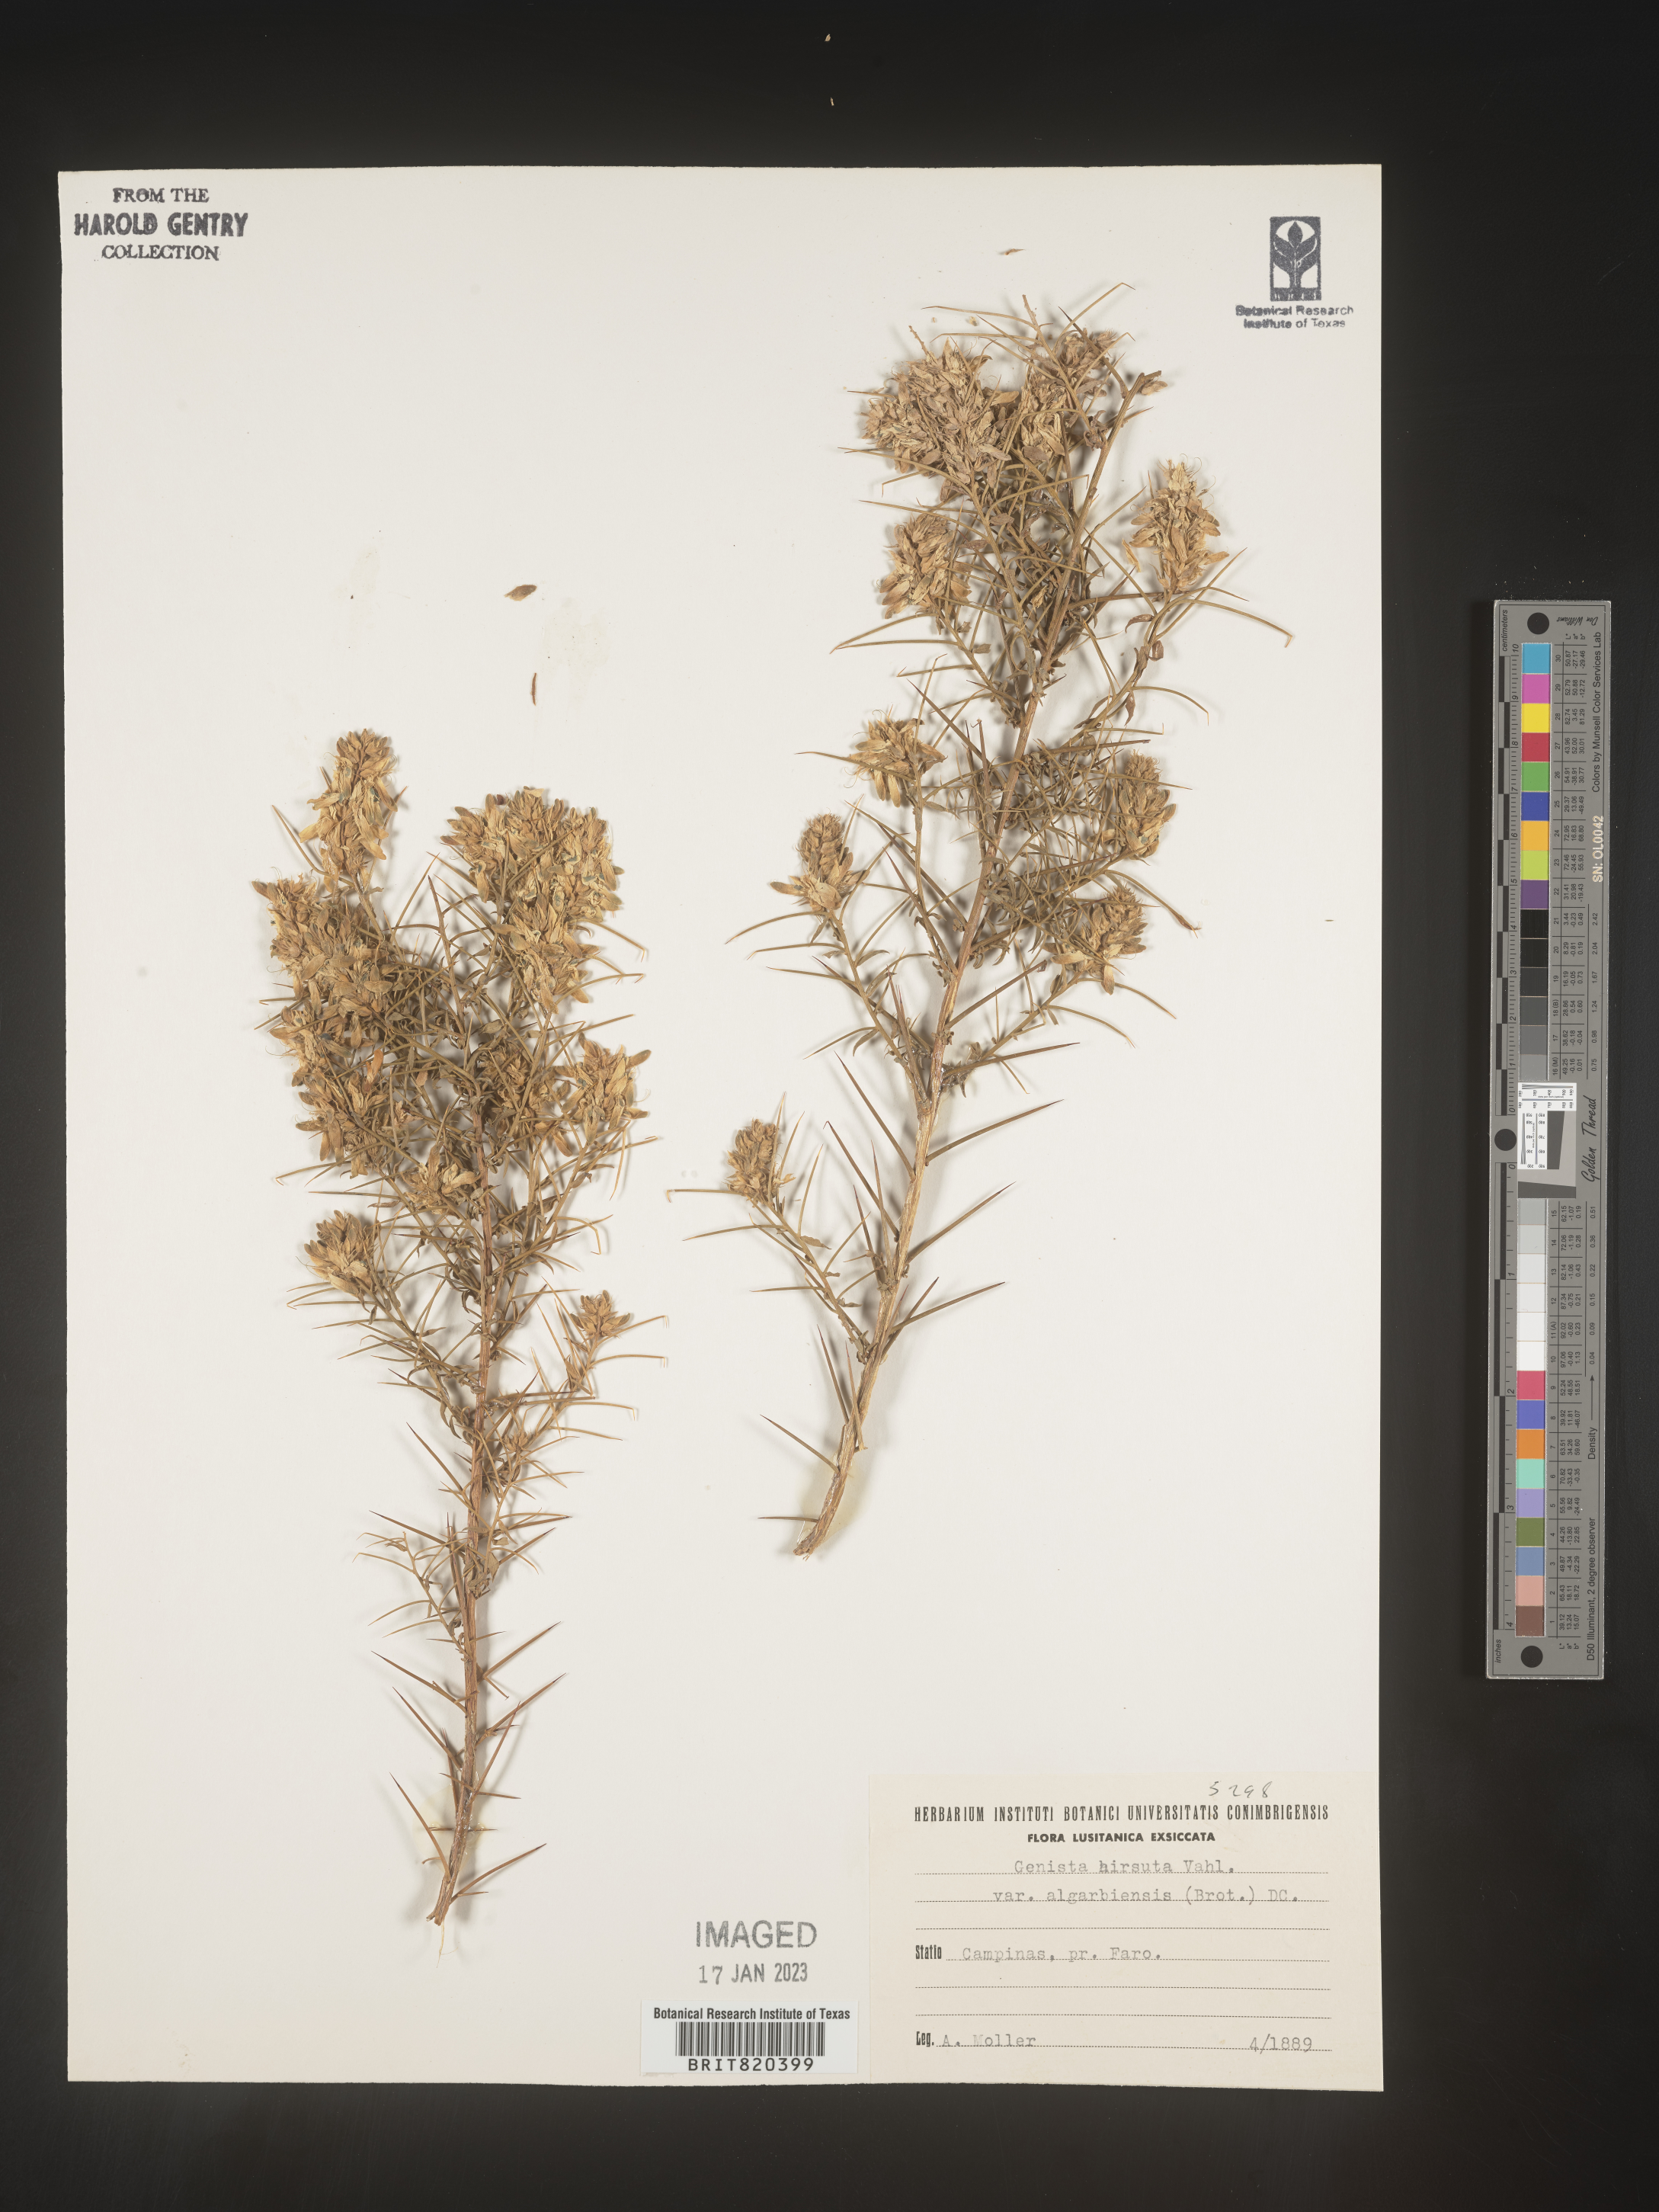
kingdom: Plantae
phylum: Tracheophyta
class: Magnoliopsida
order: Fabales
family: Fabaceae
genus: Genista
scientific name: Genista
